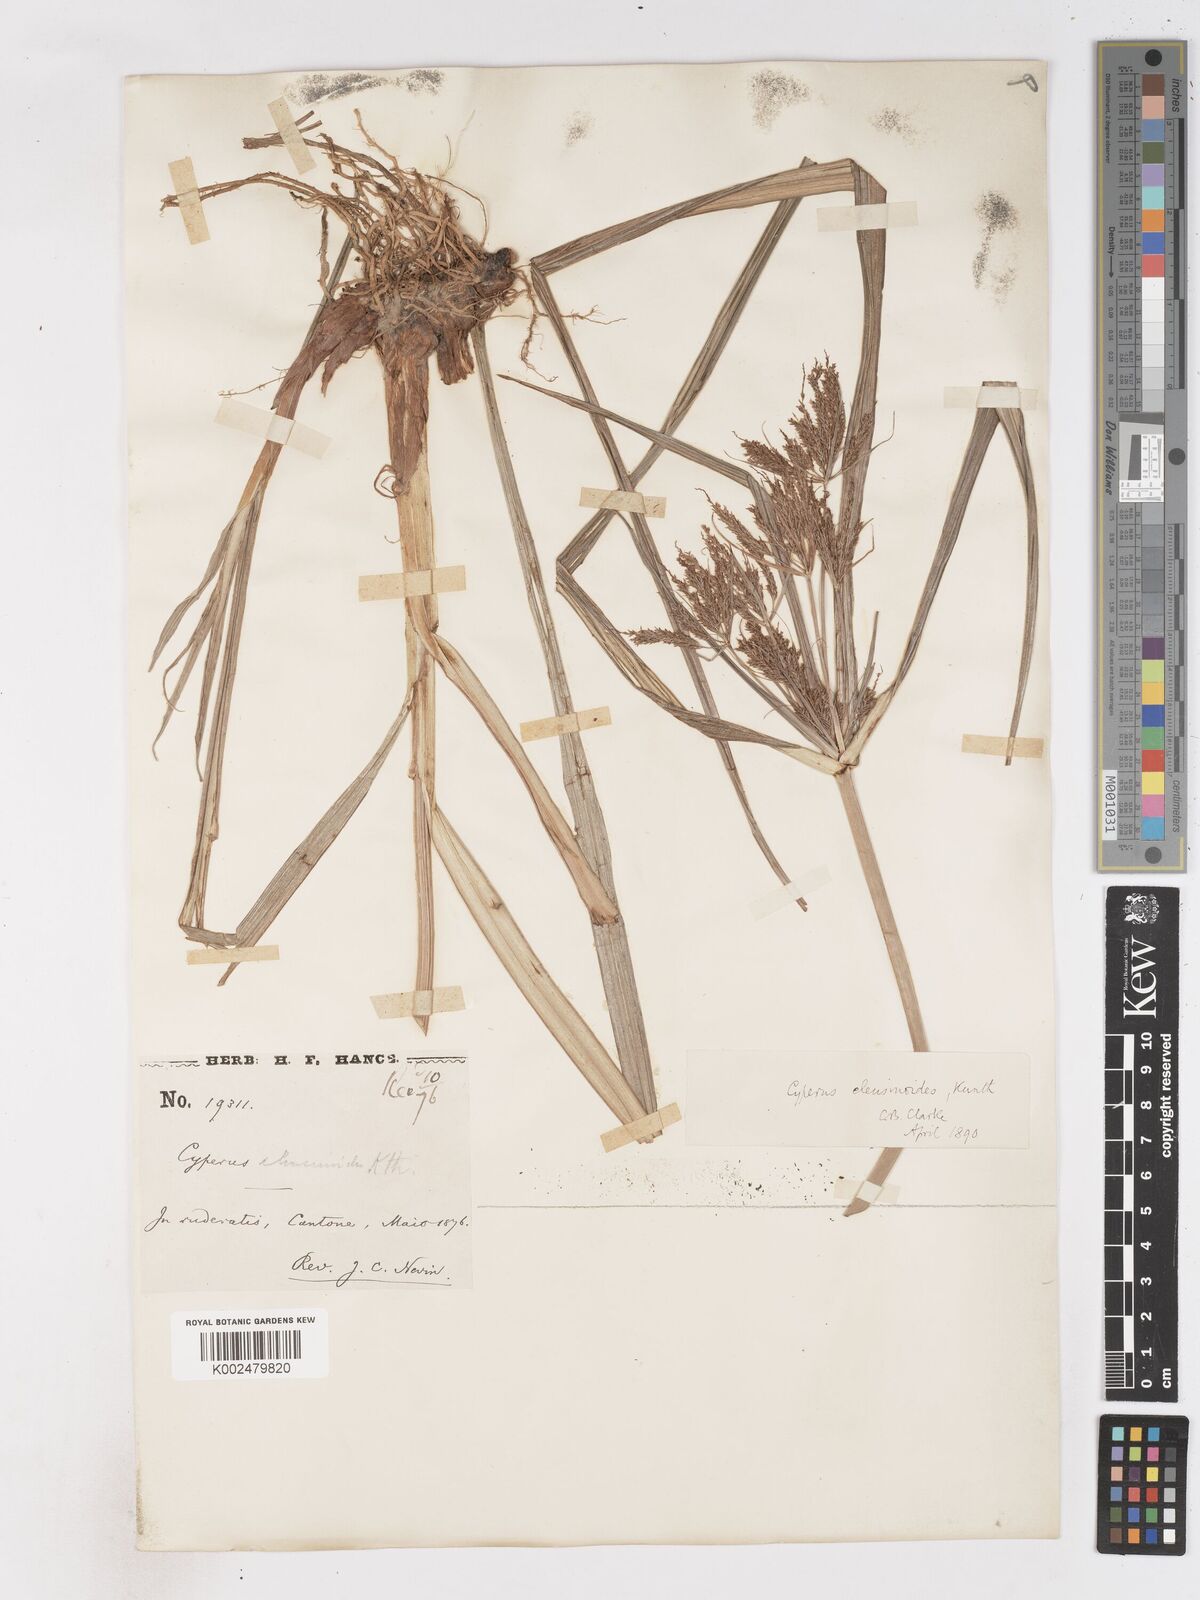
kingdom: Plantae
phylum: Tracheophyta
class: Liliopsida
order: Poales
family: Cyperaceae
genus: Cyperus
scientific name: Cyperus nutans
